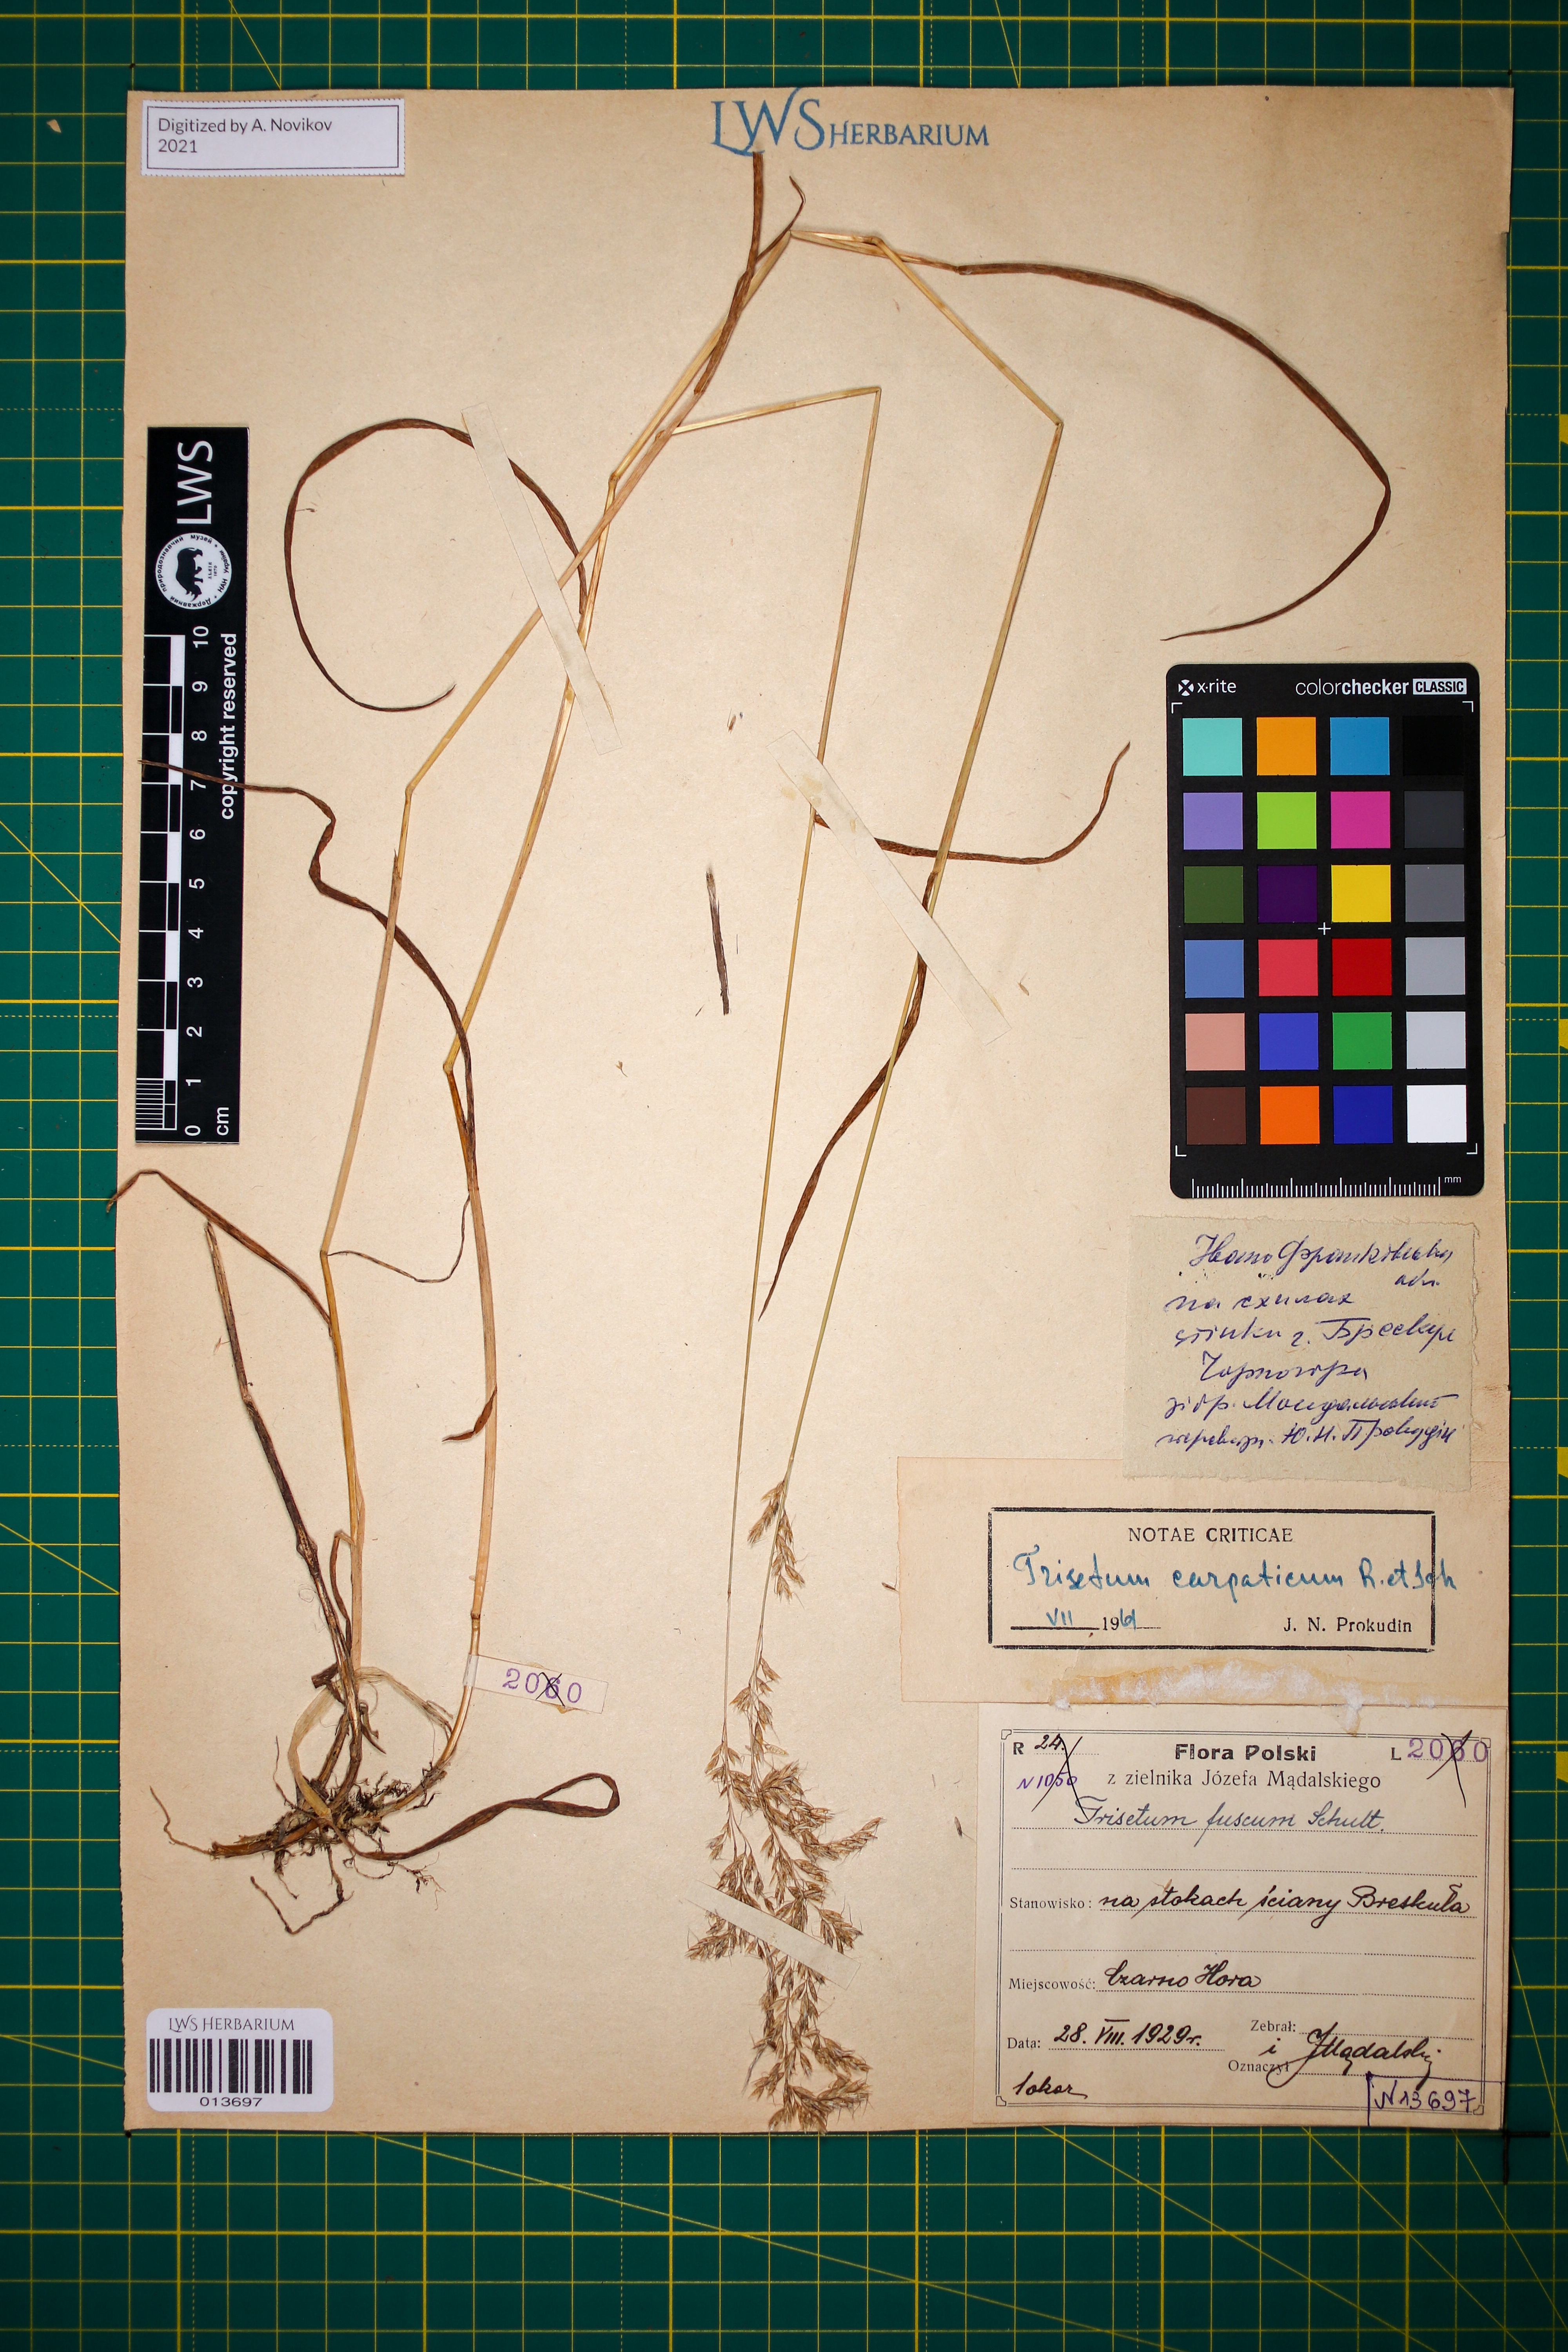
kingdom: Plantae
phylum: Tracheophyta
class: Liliopsida
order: Poales
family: Poaceae
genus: Trisetum
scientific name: Trisetum fuscum
